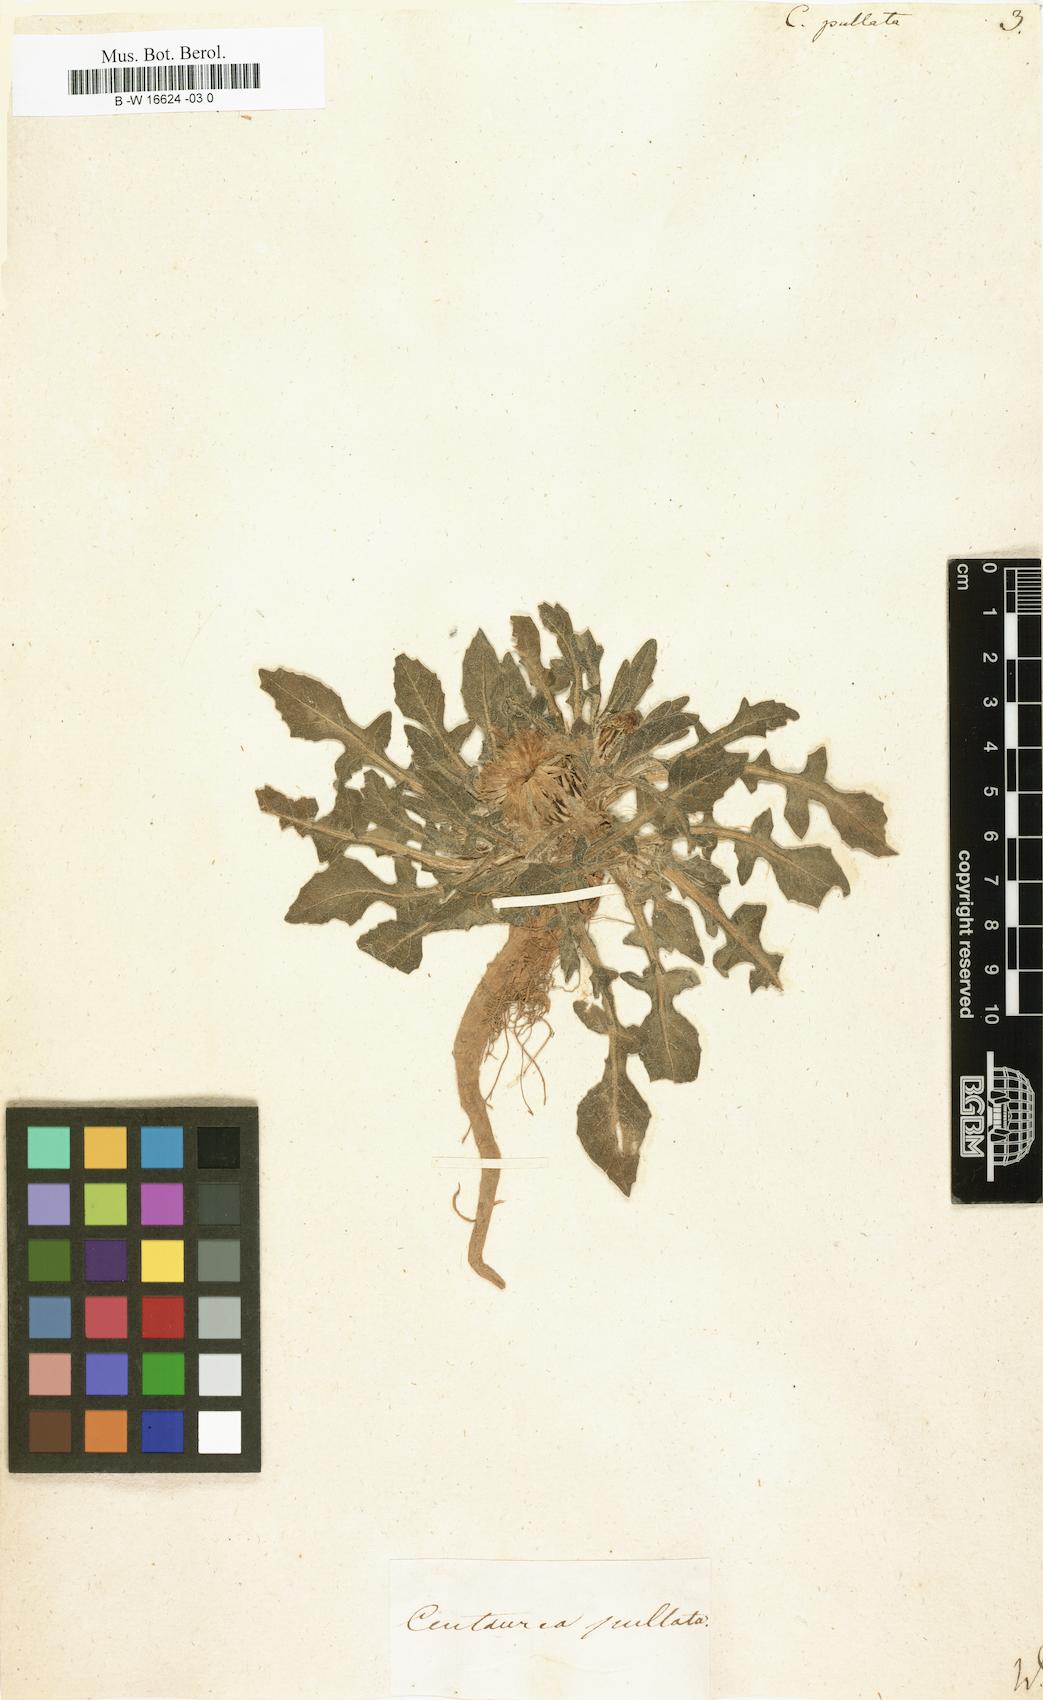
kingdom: Plantae
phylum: Tracheophyta
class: Magnoliopsida
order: Asterales
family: Asteraceae
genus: Centaurea
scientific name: Centaurea pullata
